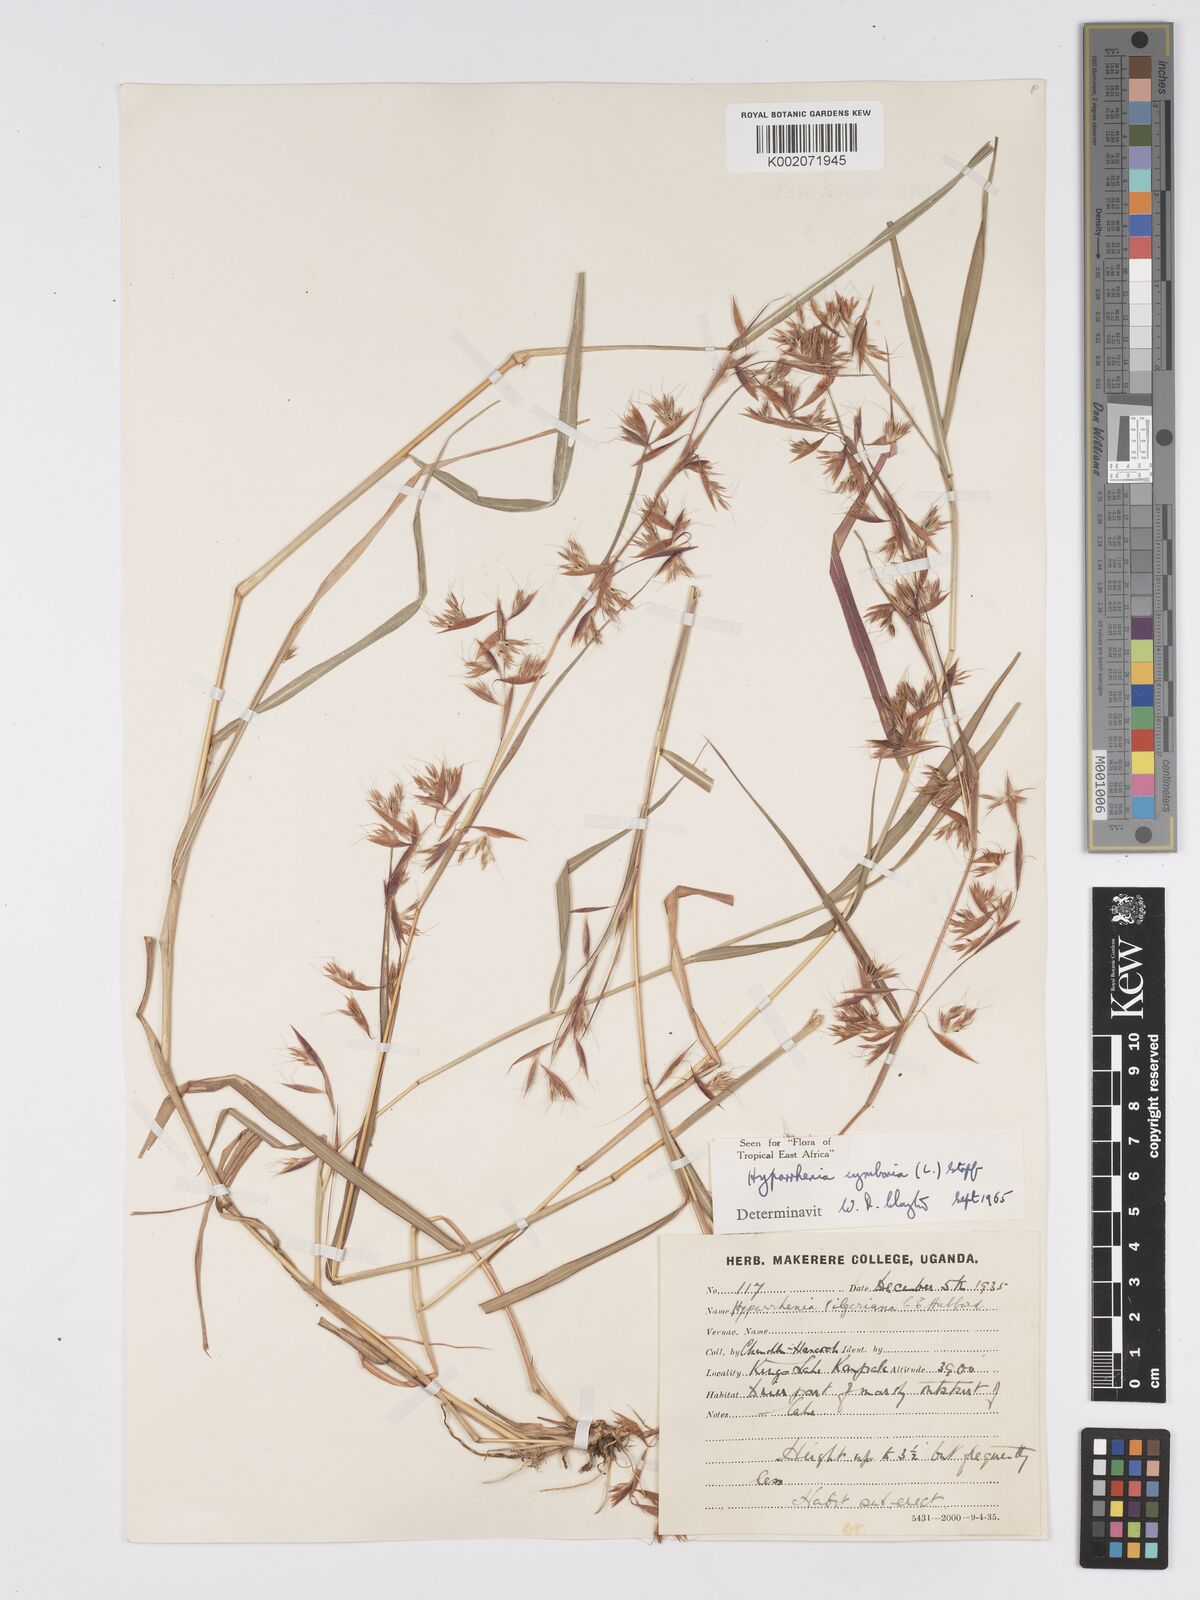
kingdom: Plantae
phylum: Tracheophyta
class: Liliopsida
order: Poales
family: Poaceae
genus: Hyparrhenia
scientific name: Hyparrhenia cymbaria
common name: Boat thatching grass
